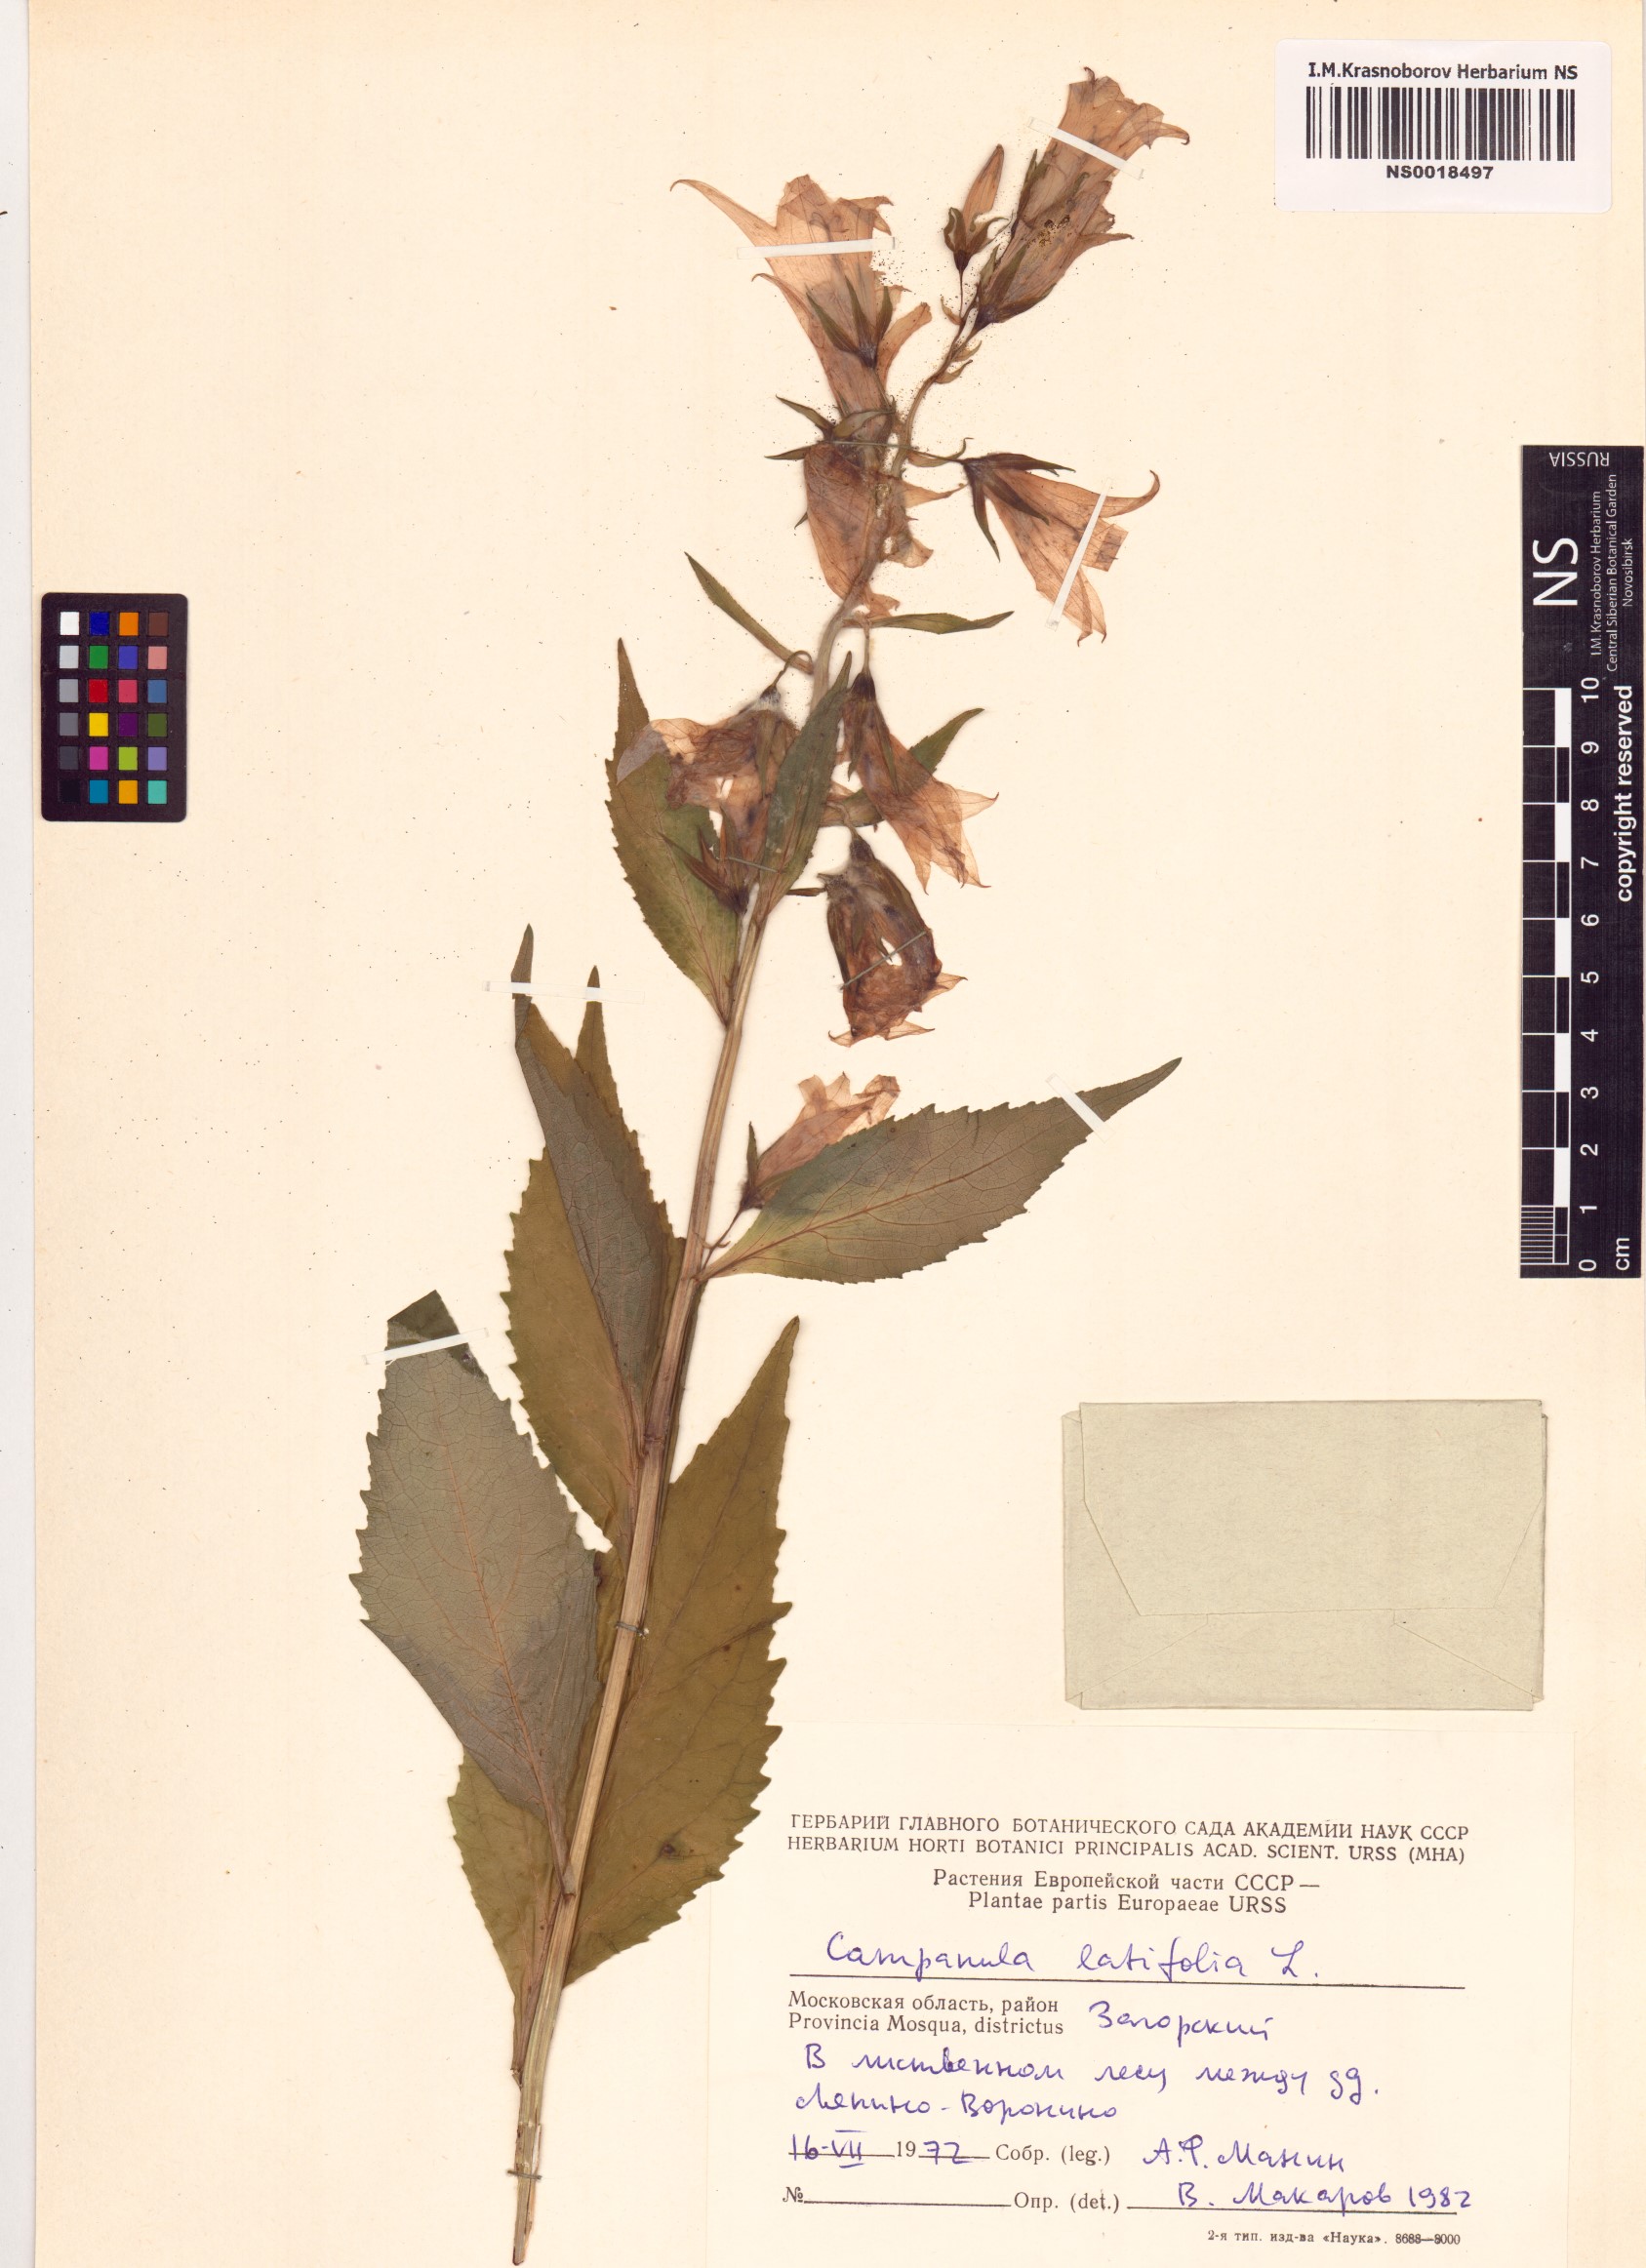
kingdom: Plantae
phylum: Tracheophyta
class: Magnoliopsida
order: Asterales
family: Campanulaceae
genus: Campanula
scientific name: Campanula latifolia
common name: Giant bellflower
